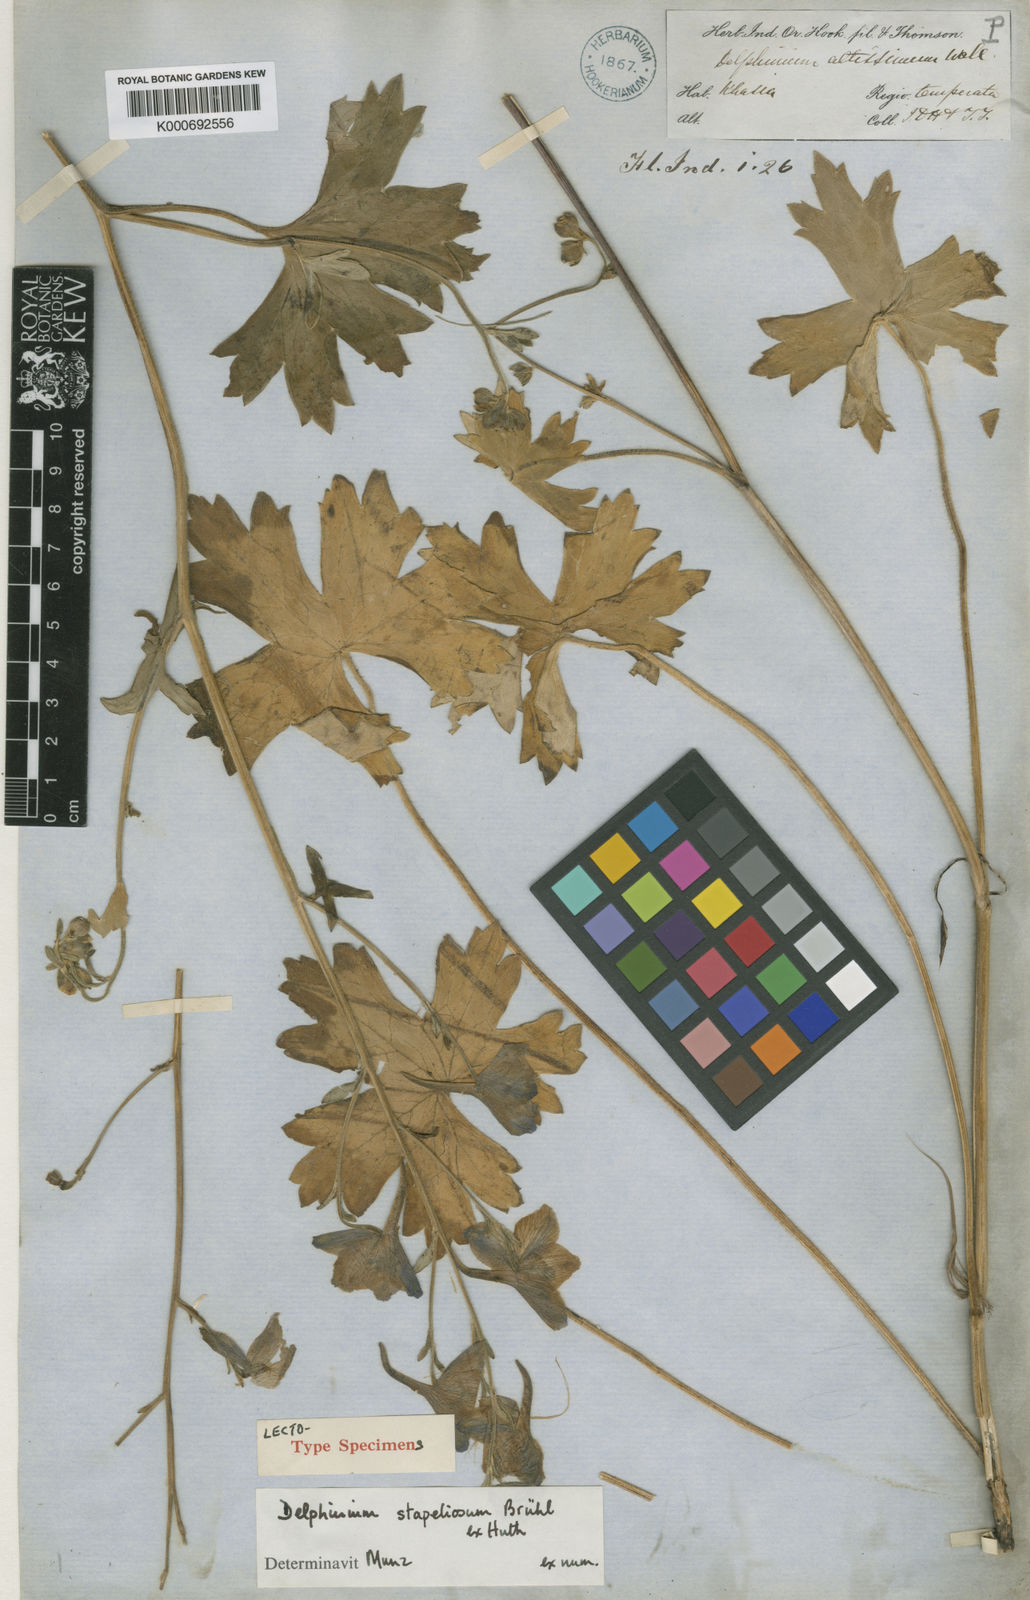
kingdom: Plantae
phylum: Tracheophyta
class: Magnoliopsida
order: Ranunculales
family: Ranunculaceae
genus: Delphinium
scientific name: Delphinium stapeliosmum
